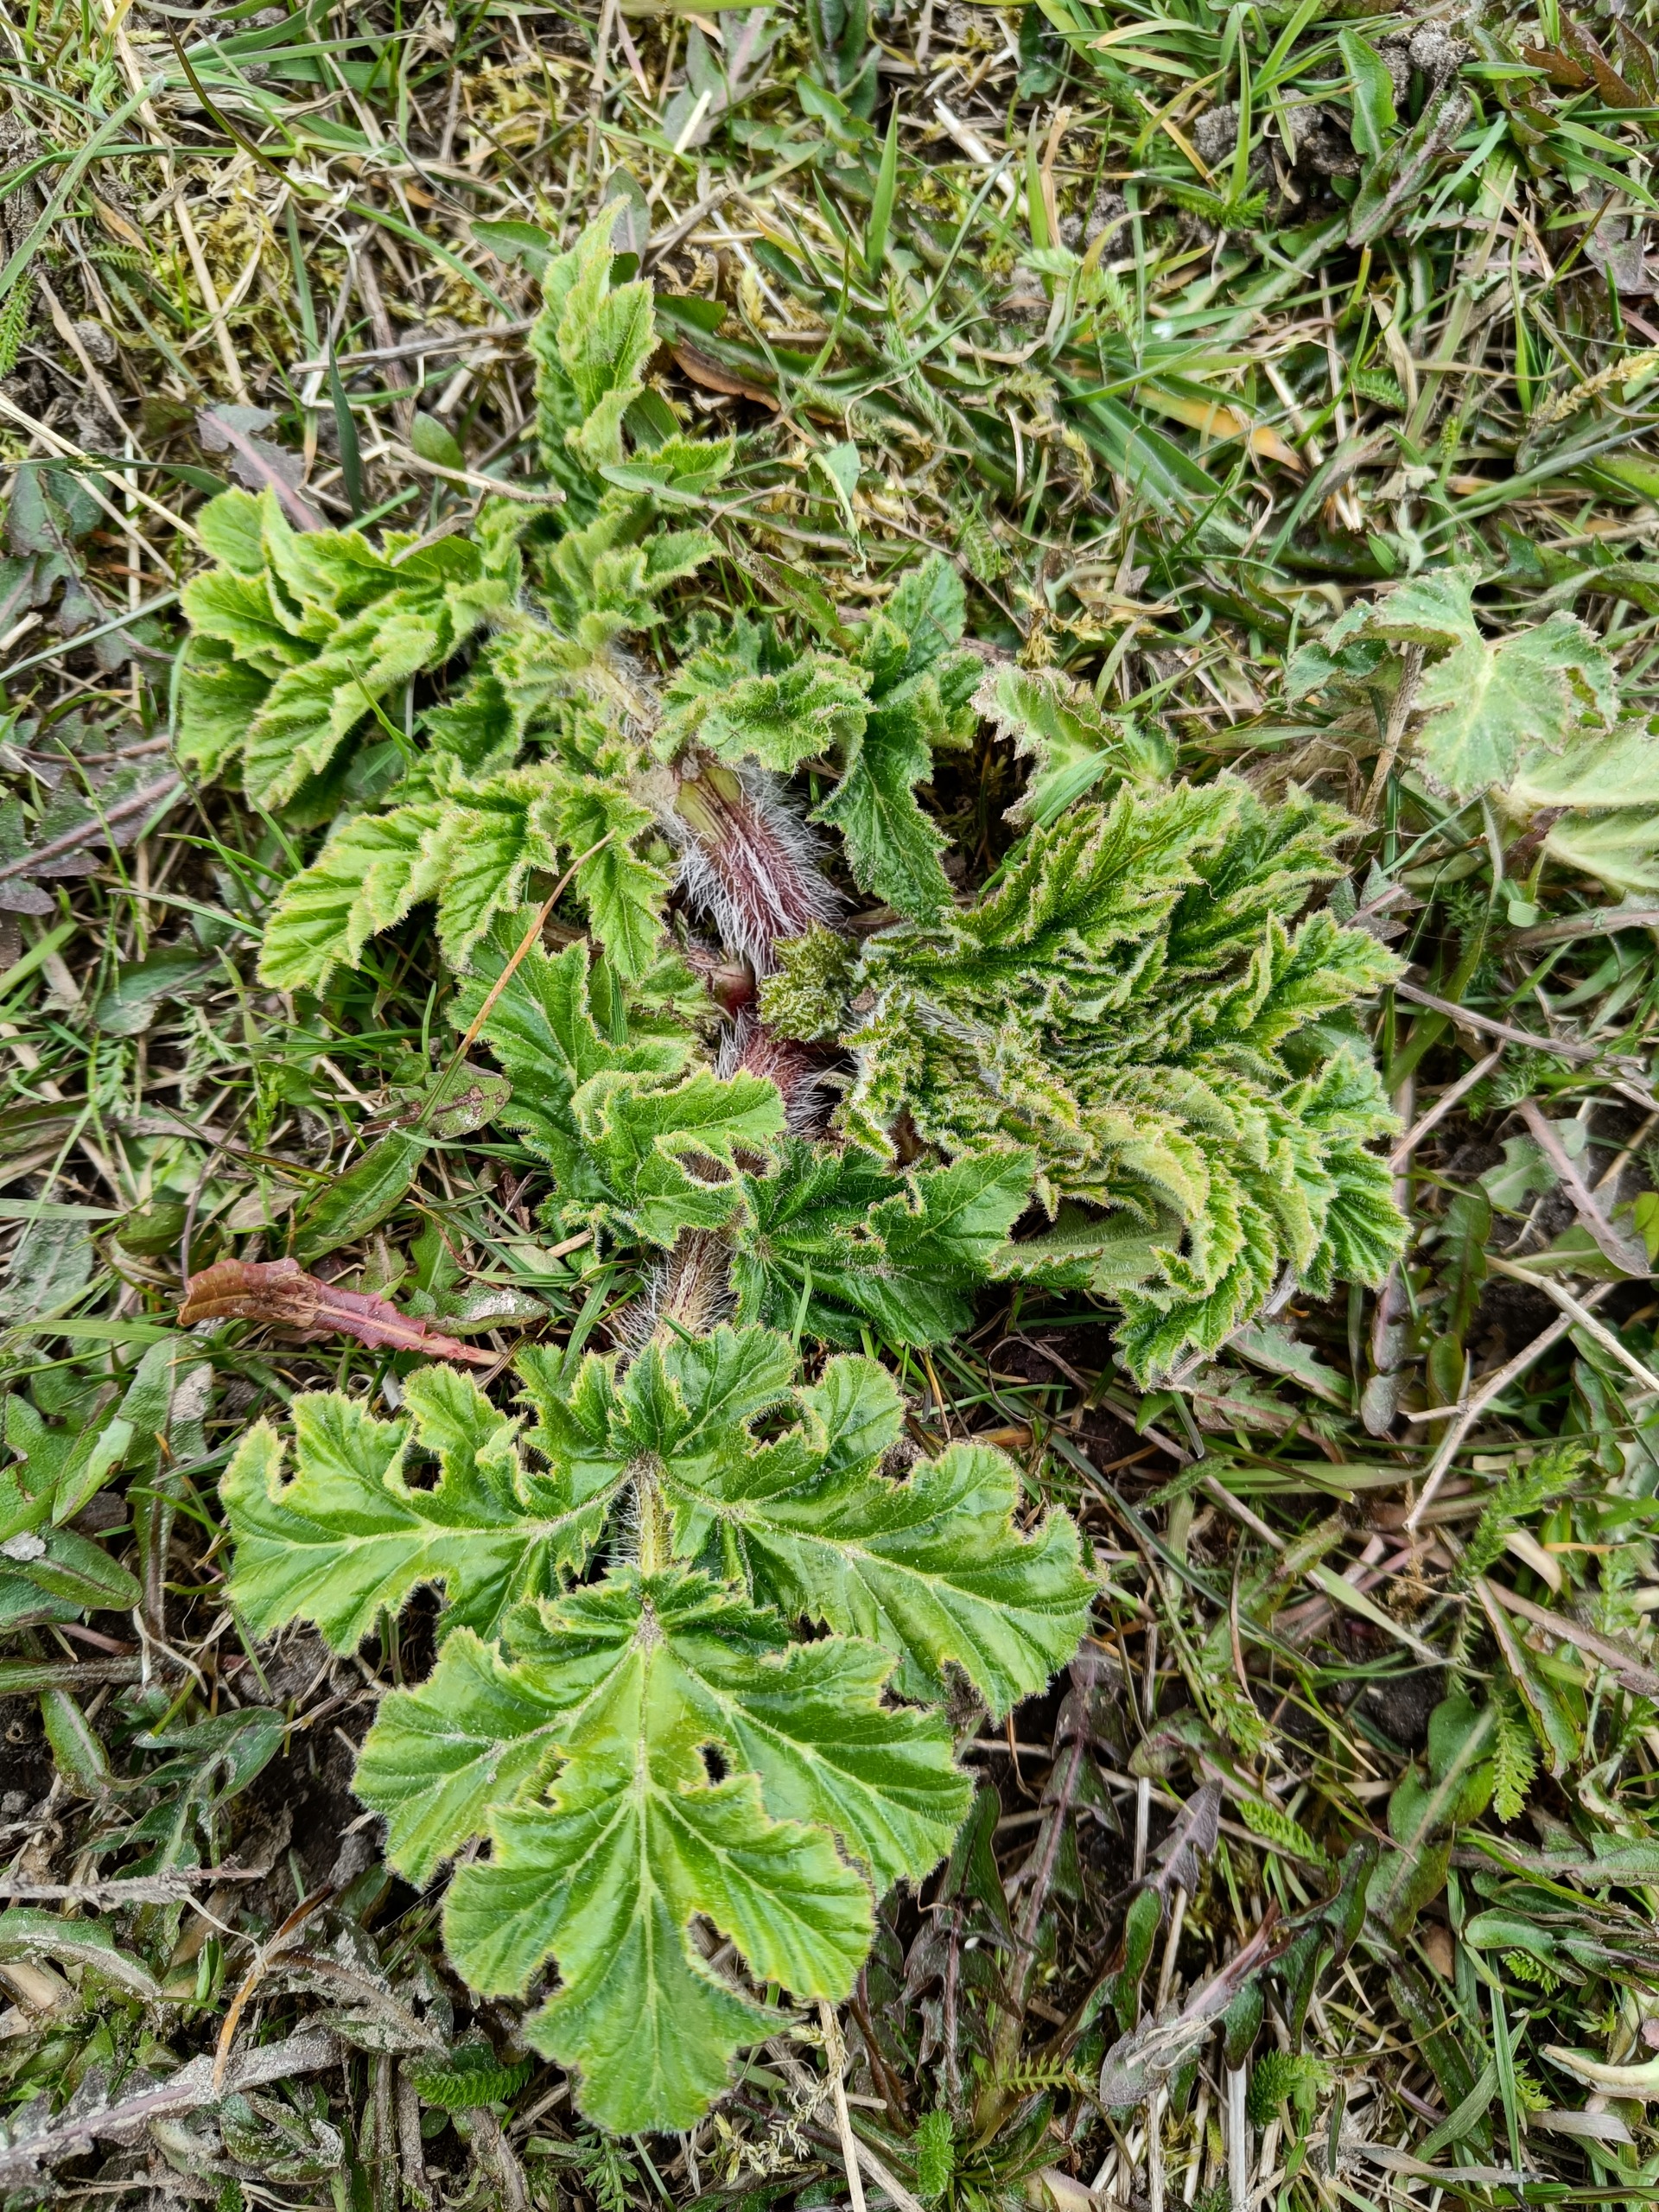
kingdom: Plantae
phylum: Tracheophyta
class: Magnoliopsida
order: Apiales
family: Apiaceae
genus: Heracleum
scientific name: Heracleum mantegazzianum
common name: Kæmpe-bjørneklo
